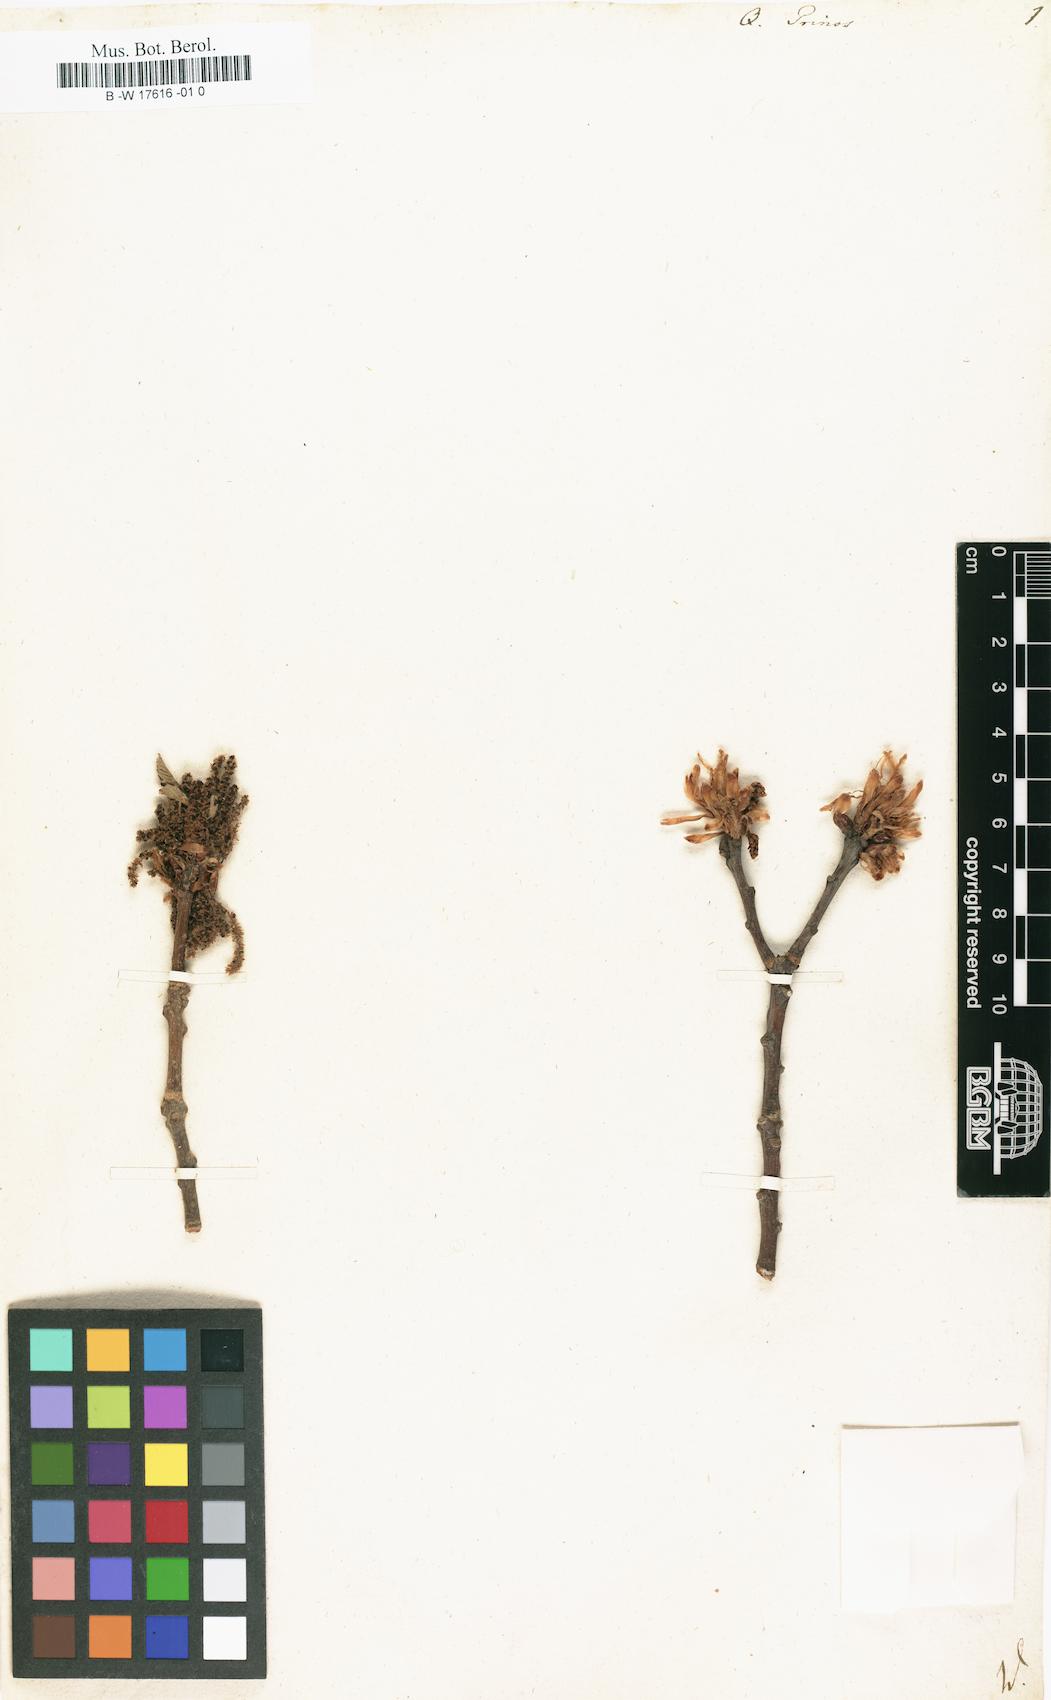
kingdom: Plantae
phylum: Tracheophyta
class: Magnoliopsida
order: Fagales
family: Fagaceae
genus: Quercus
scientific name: Quercus michauxii
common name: Swamp chestnut oak
